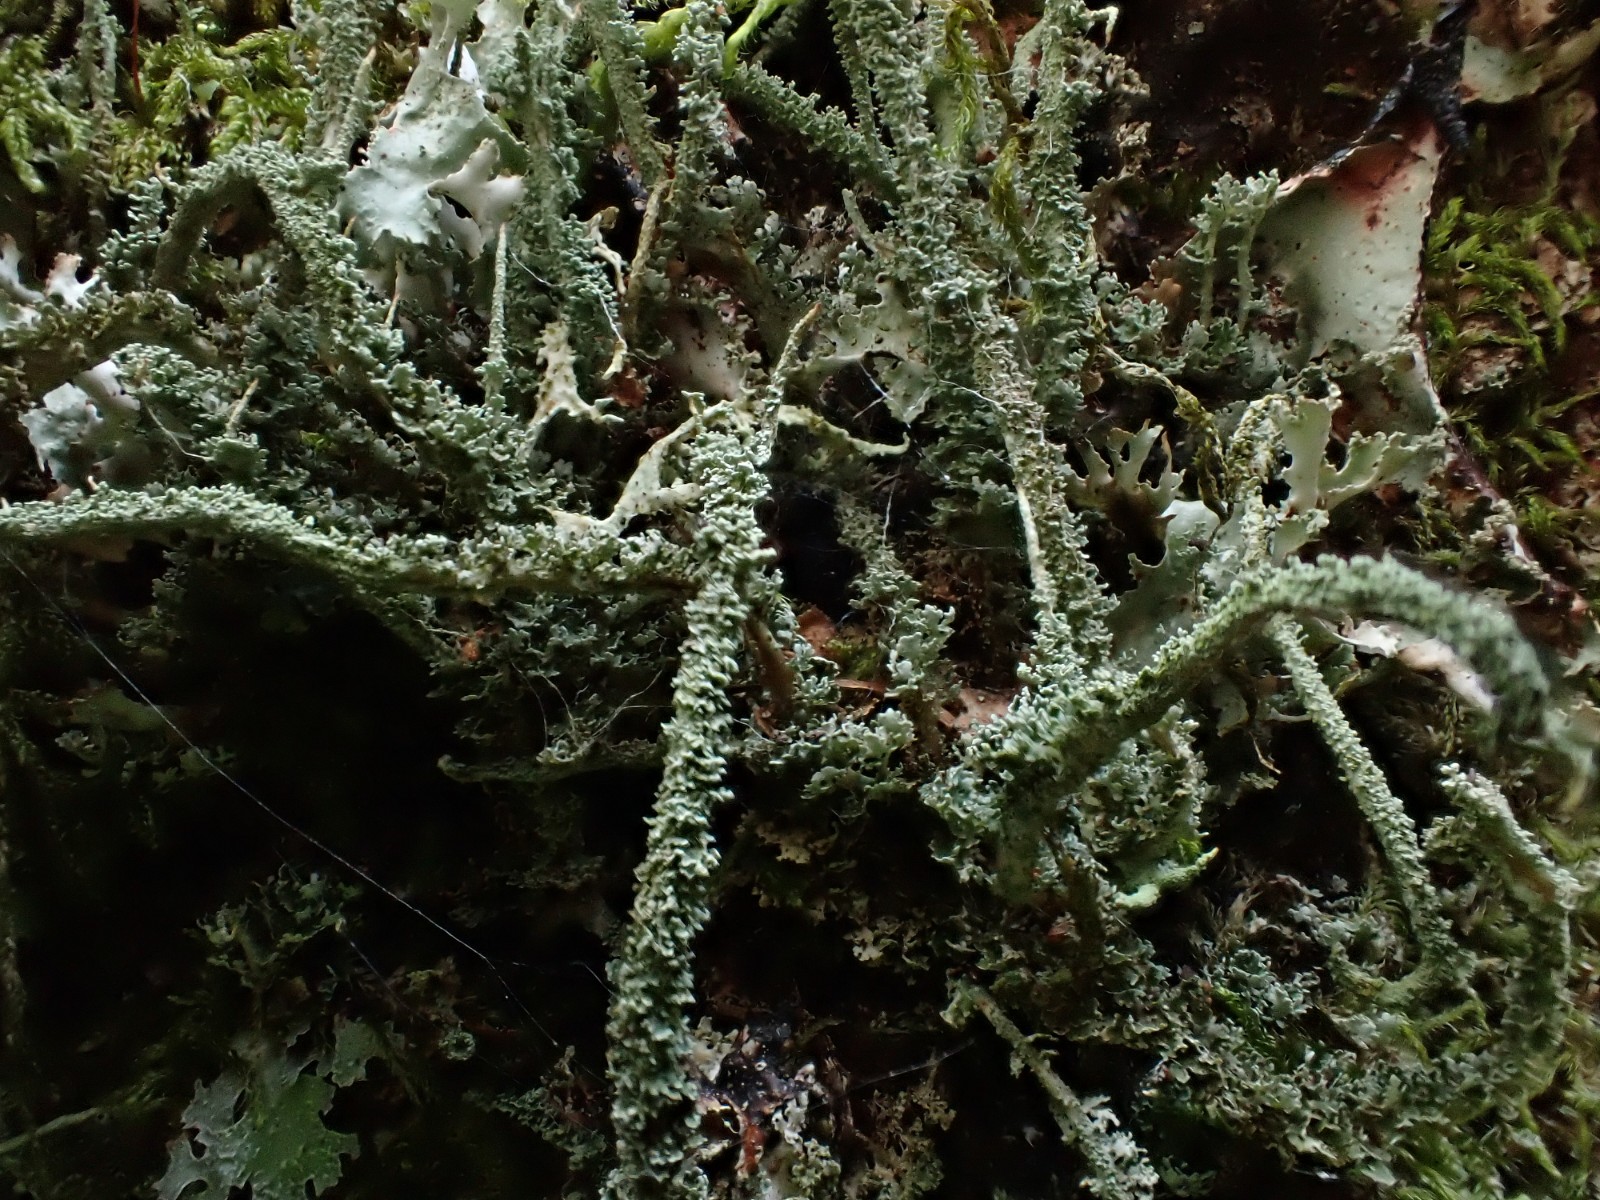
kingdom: Fungi
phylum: Ascomycota
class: Lecanoromycetes
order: Lecanorales
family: Cladoniaceae
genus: Cladonia
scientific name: Cladonia squamosa
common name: skælklædt bægerlav
